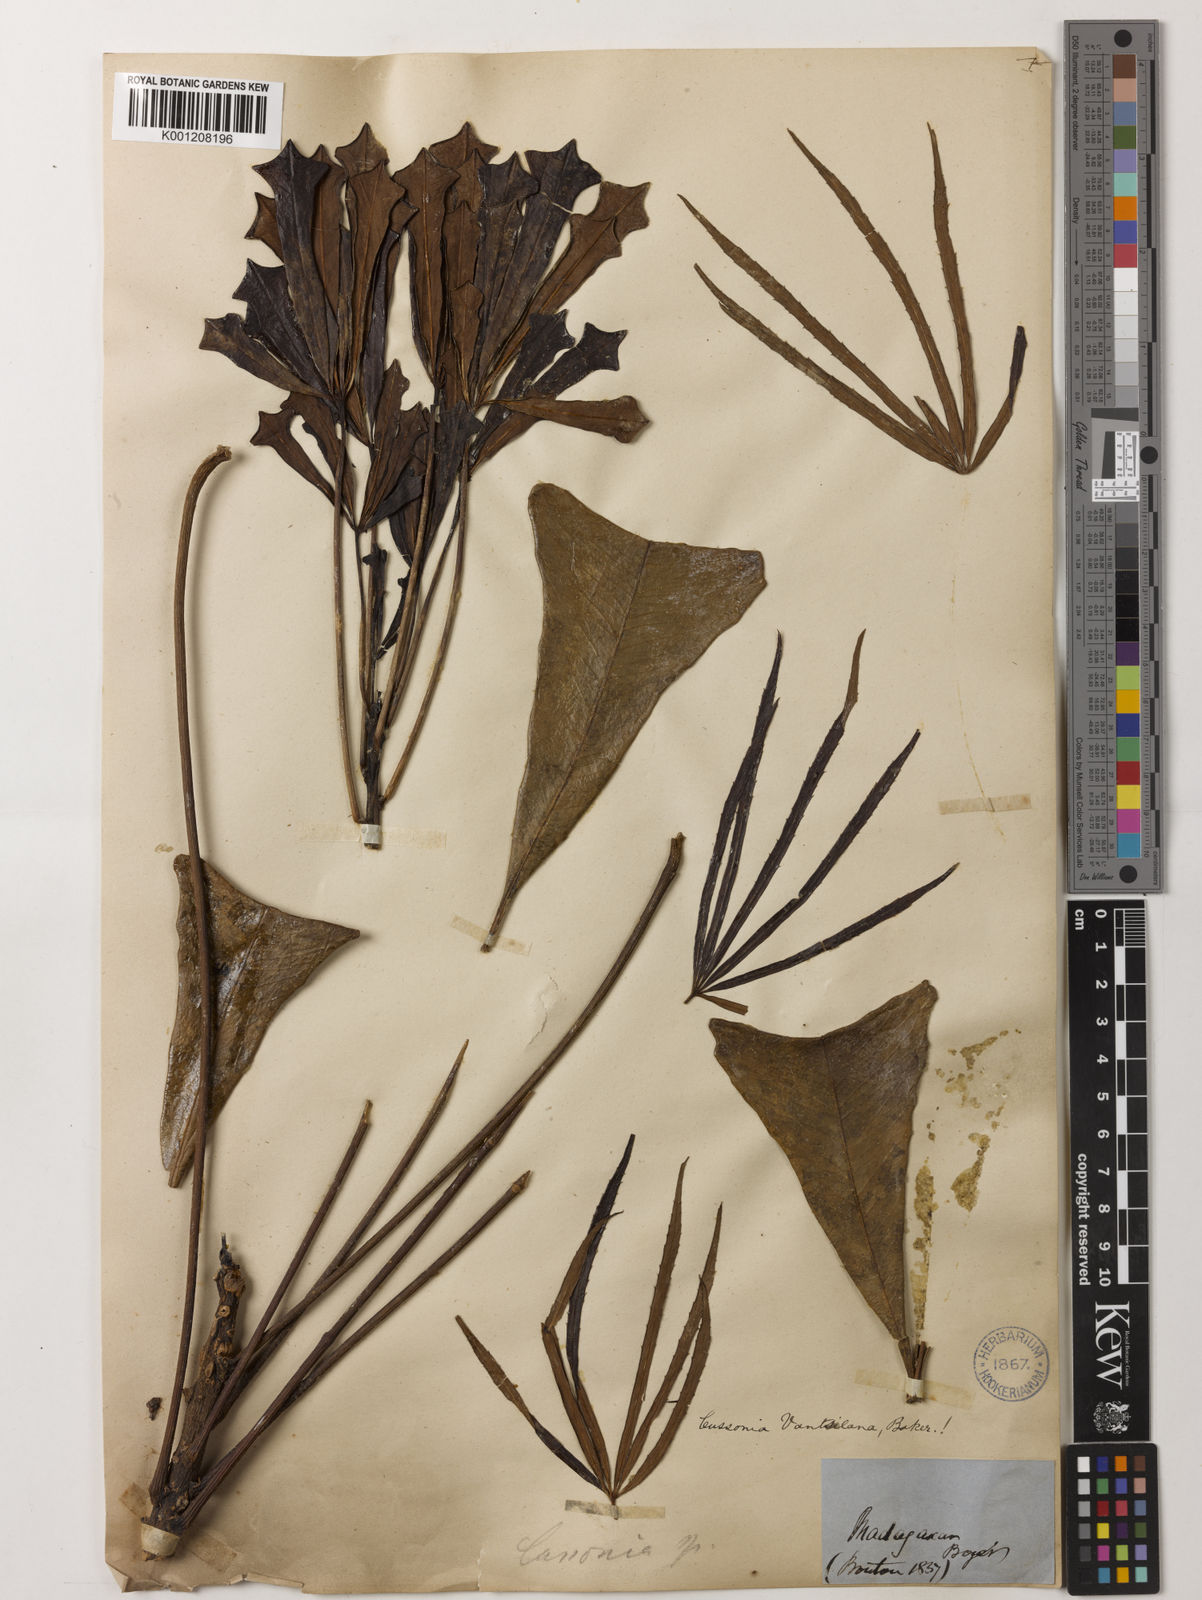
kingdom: Plantae
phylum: Tracheophyta
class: Magnoliopsida
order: Apiales
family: Araliaceae
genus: Neocussonia
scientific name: Neocussonia vantsilana
